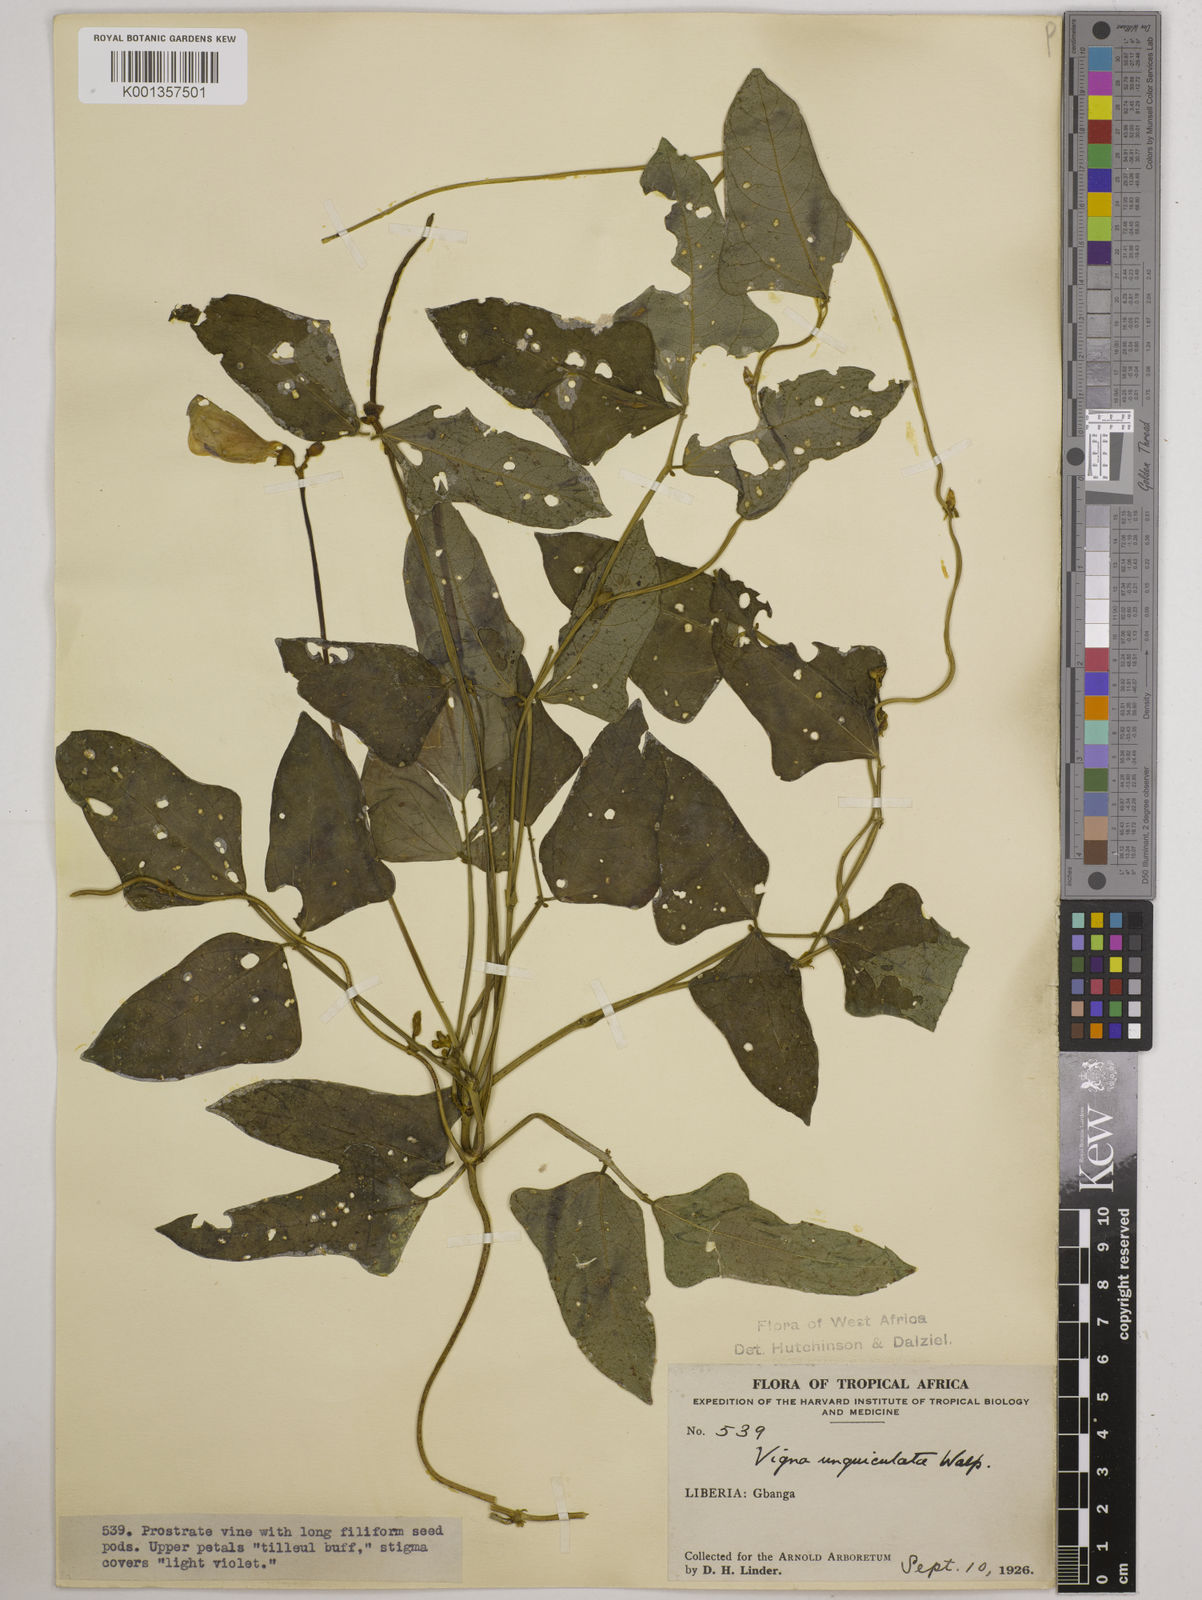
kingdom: Plantae
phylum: Tracheophyta
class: Magnoliopsida
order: Fabales
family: Fabaceae
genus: Vigna
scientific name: Vigna
